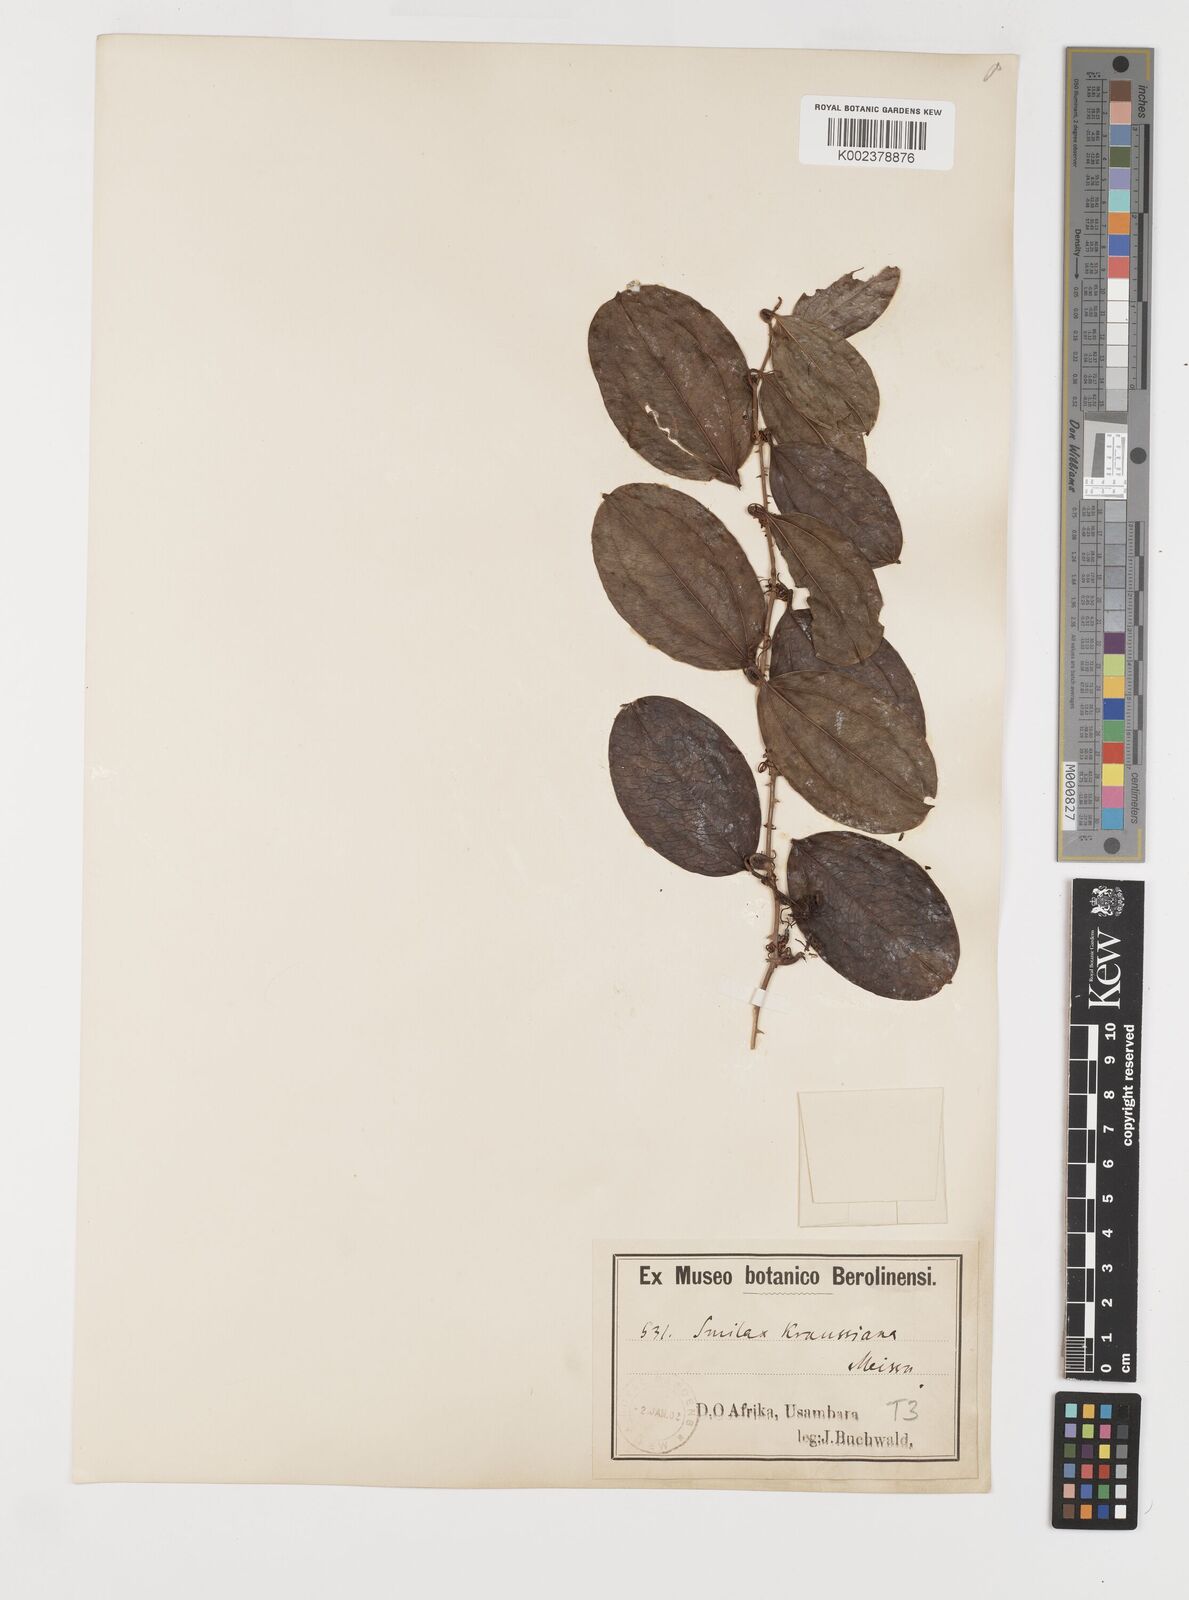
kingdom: Plantae
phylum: Tracheophyta
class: Liliopsida
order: Liliales
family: Smilacaceae
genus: Smilax
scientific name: Smilax anceps
